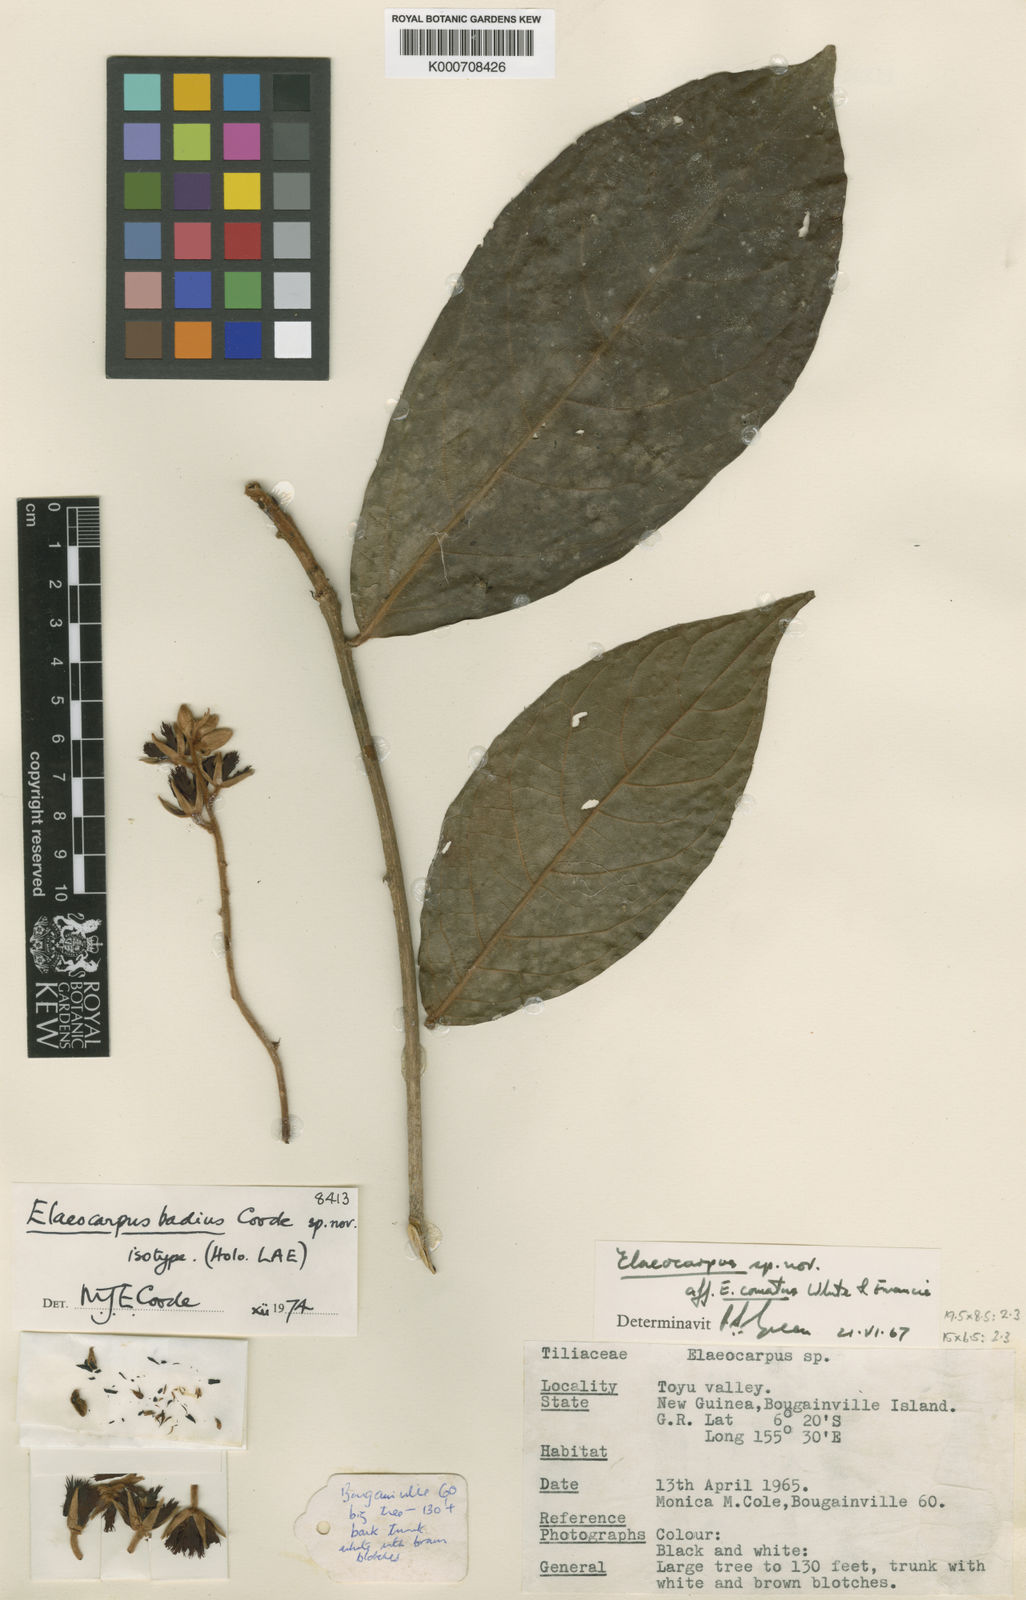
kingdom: Plantae
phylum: Tracheophyta
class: Magnoliopsida
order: Oxalidales
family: Elaeocarpaceae
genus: Elaeocarpus
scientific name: Elaeocarpus badius
